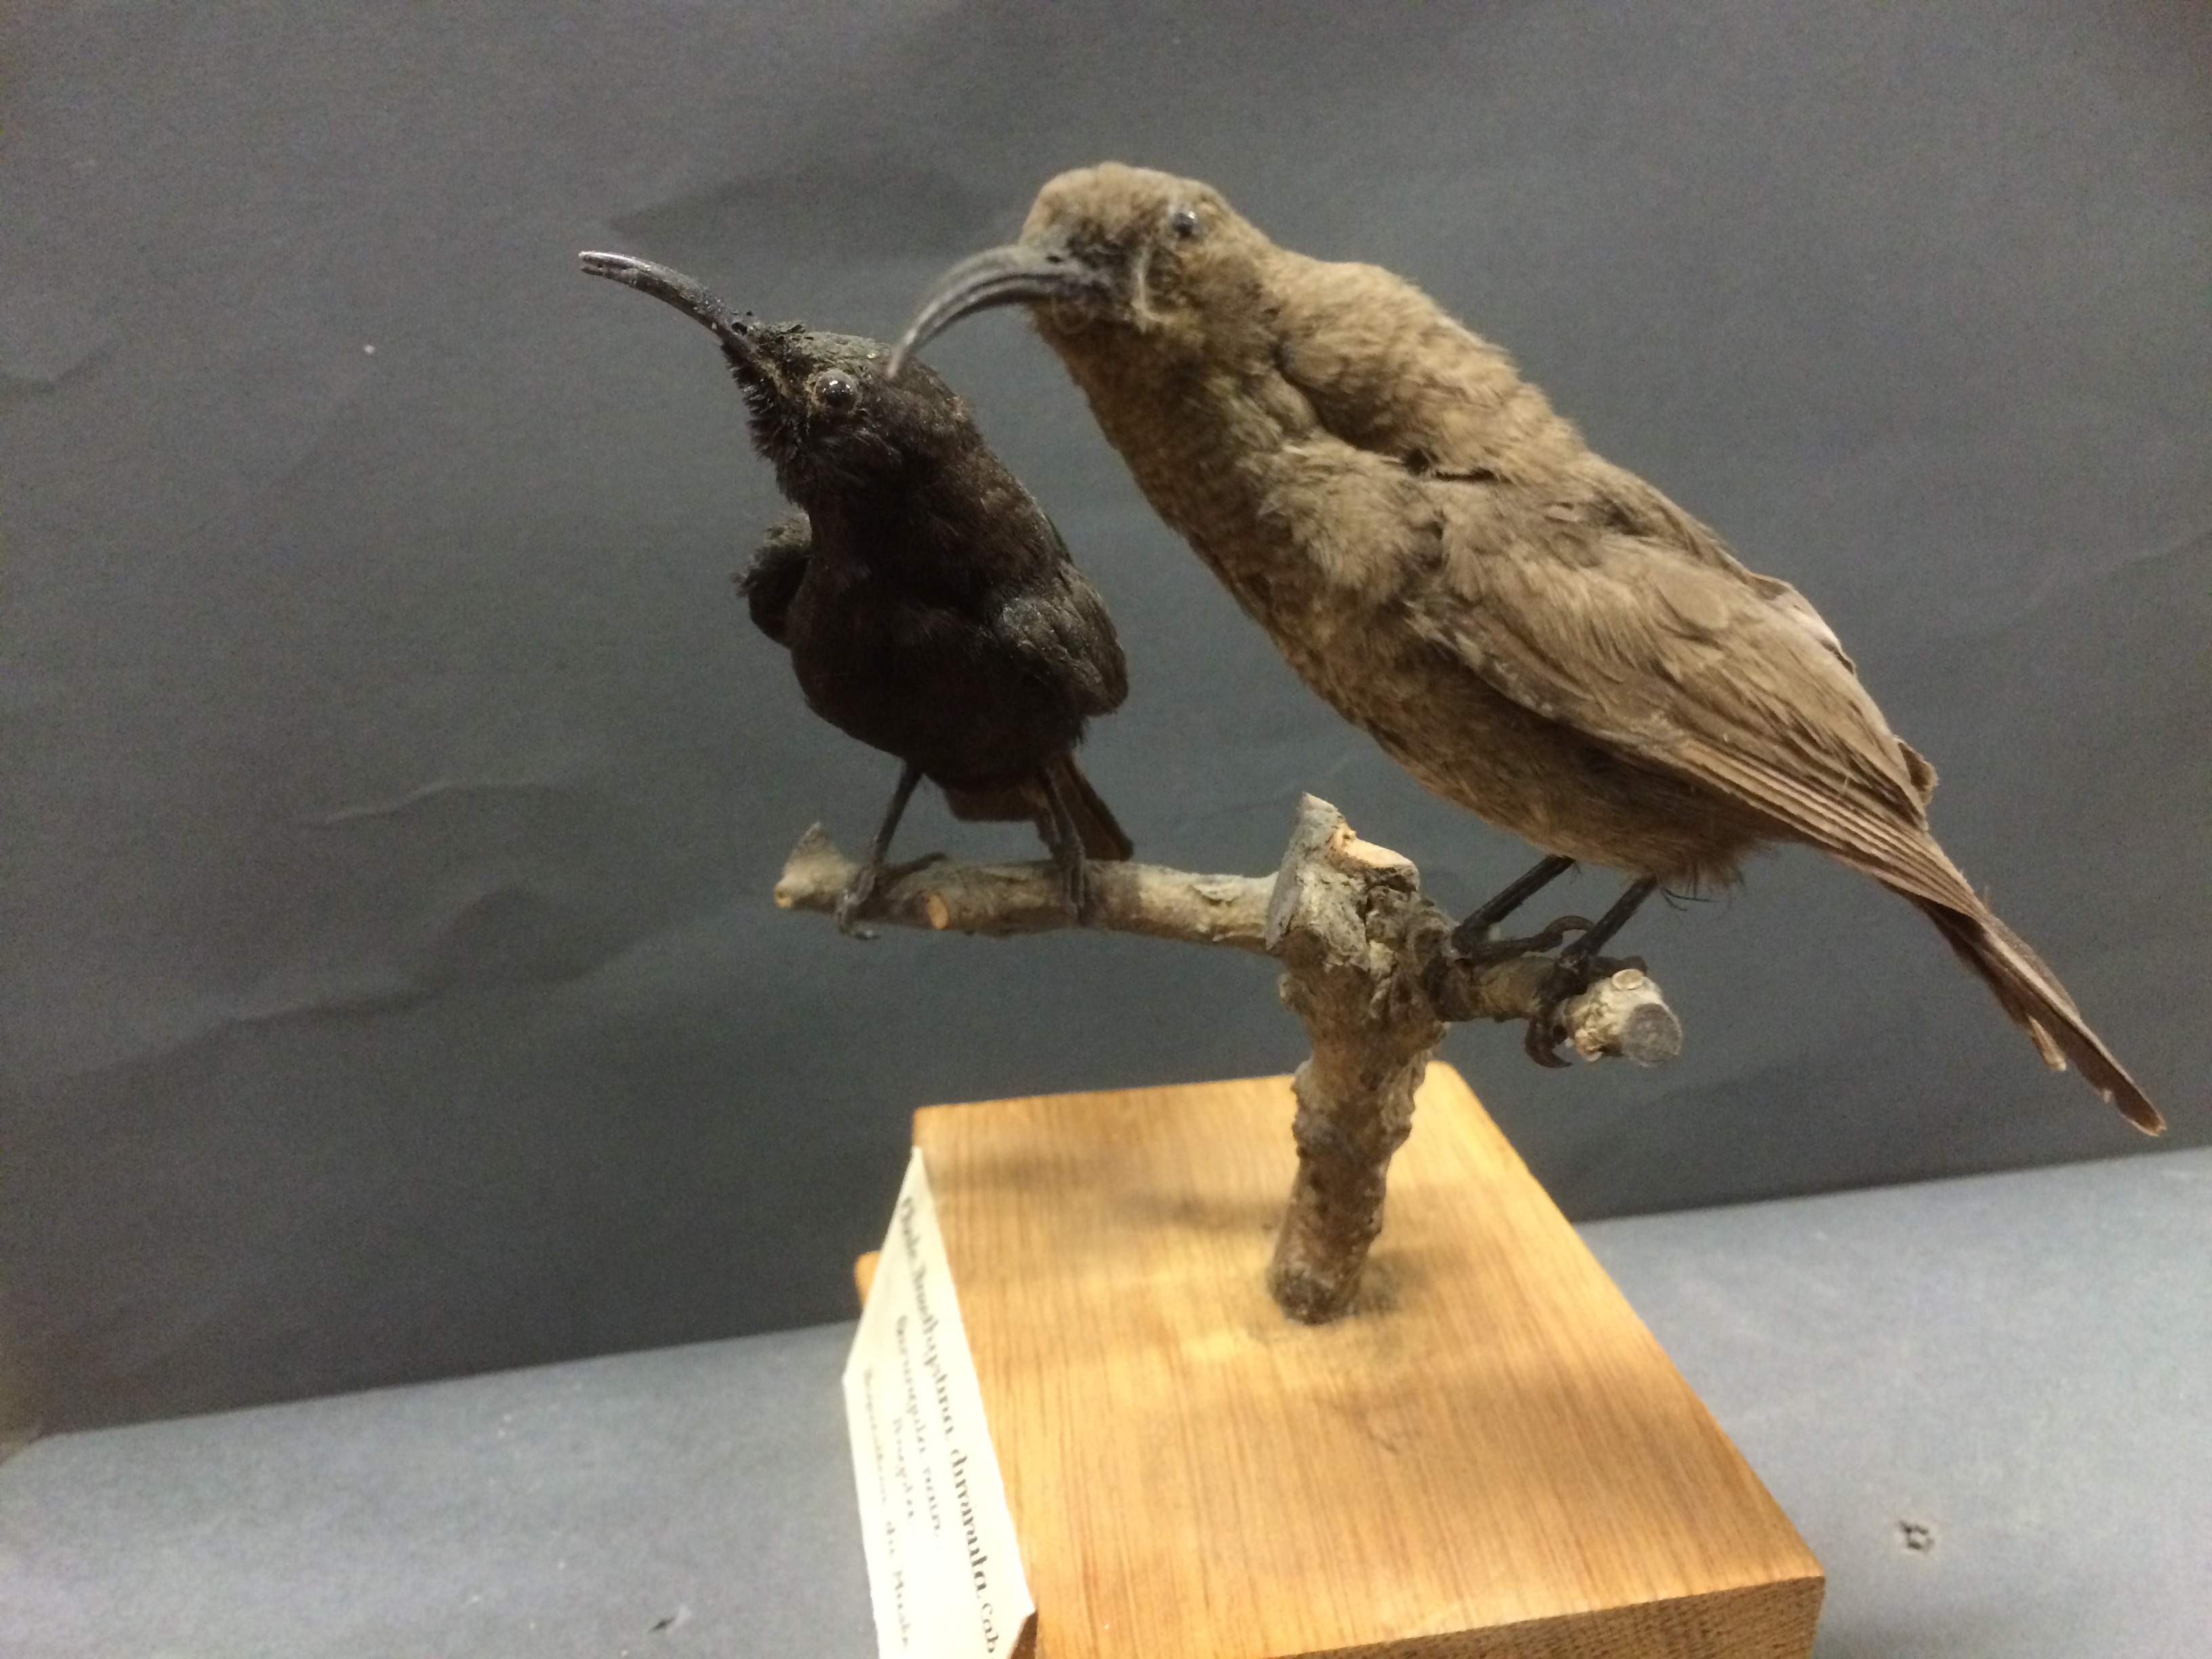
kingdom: Animalia
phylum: Chordata
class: Aves
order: Passeriformes
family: Nectariniidae
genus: Chalcomitra
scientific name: Chalcomitra fuliginosa
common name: Carmelite sunbird
